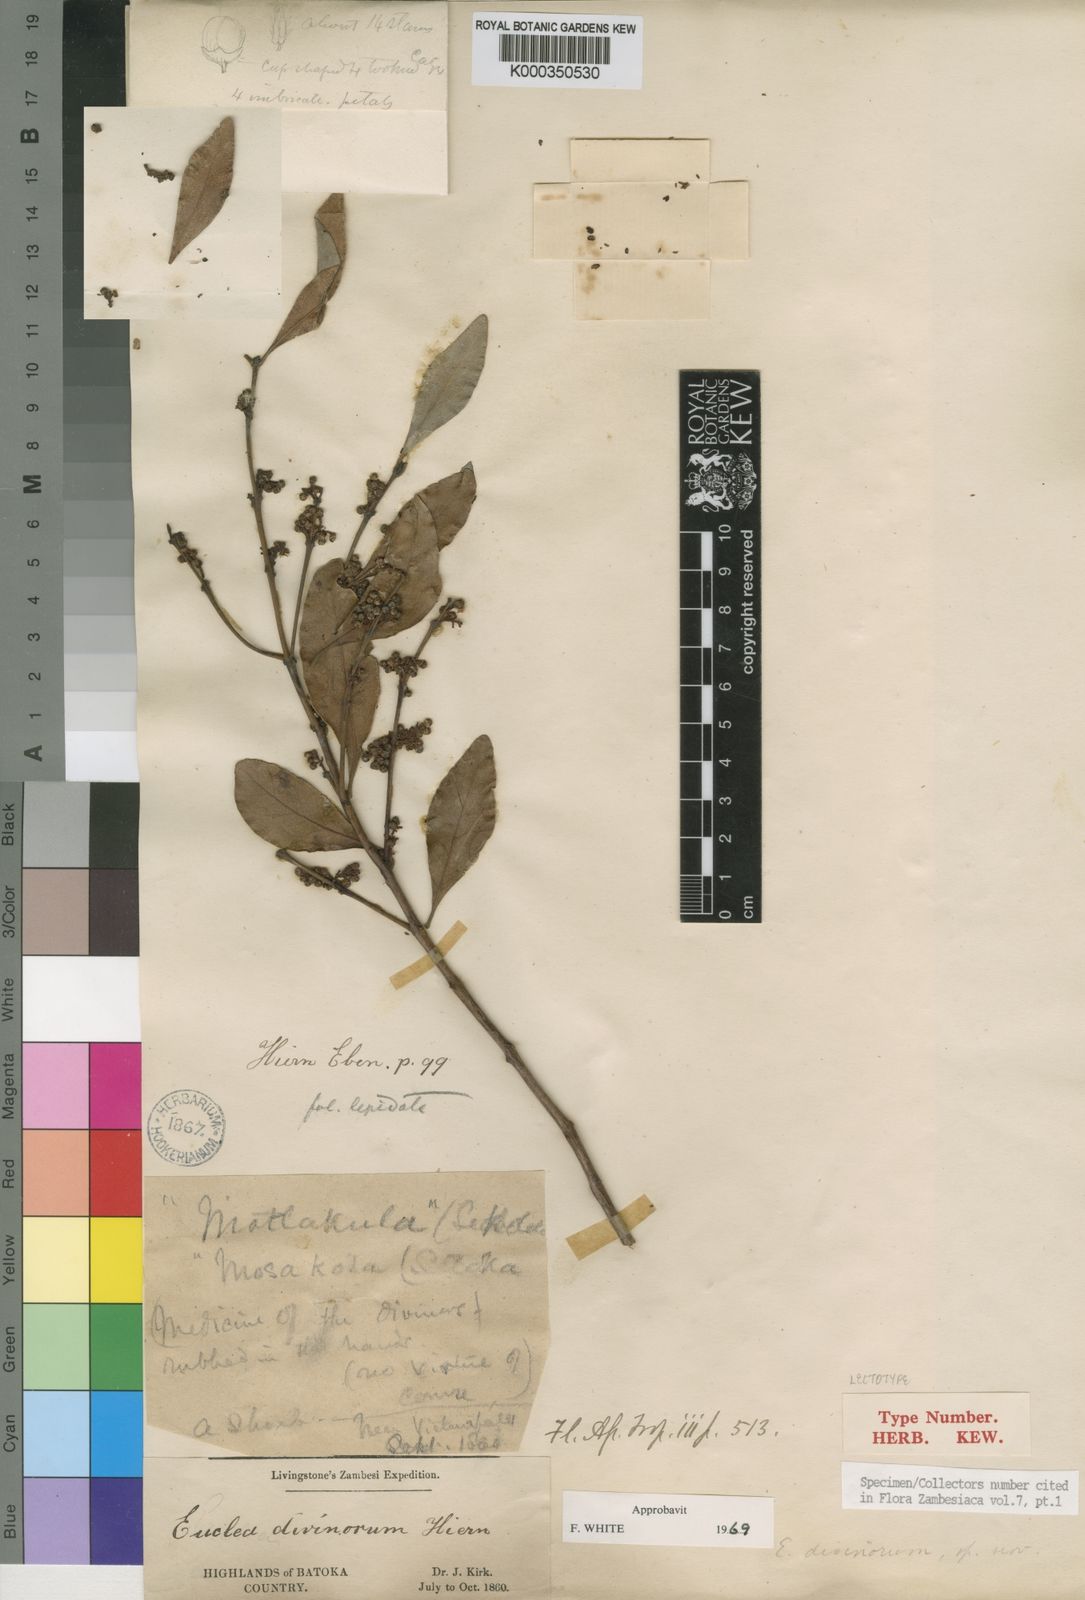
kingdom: Plantae
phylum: Tracheophyta
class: Magnoliopsida
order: Ericales
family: Ebenaceae
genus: Euclea
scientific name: Euclea divinorum
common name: Diamond-leaved euclea
